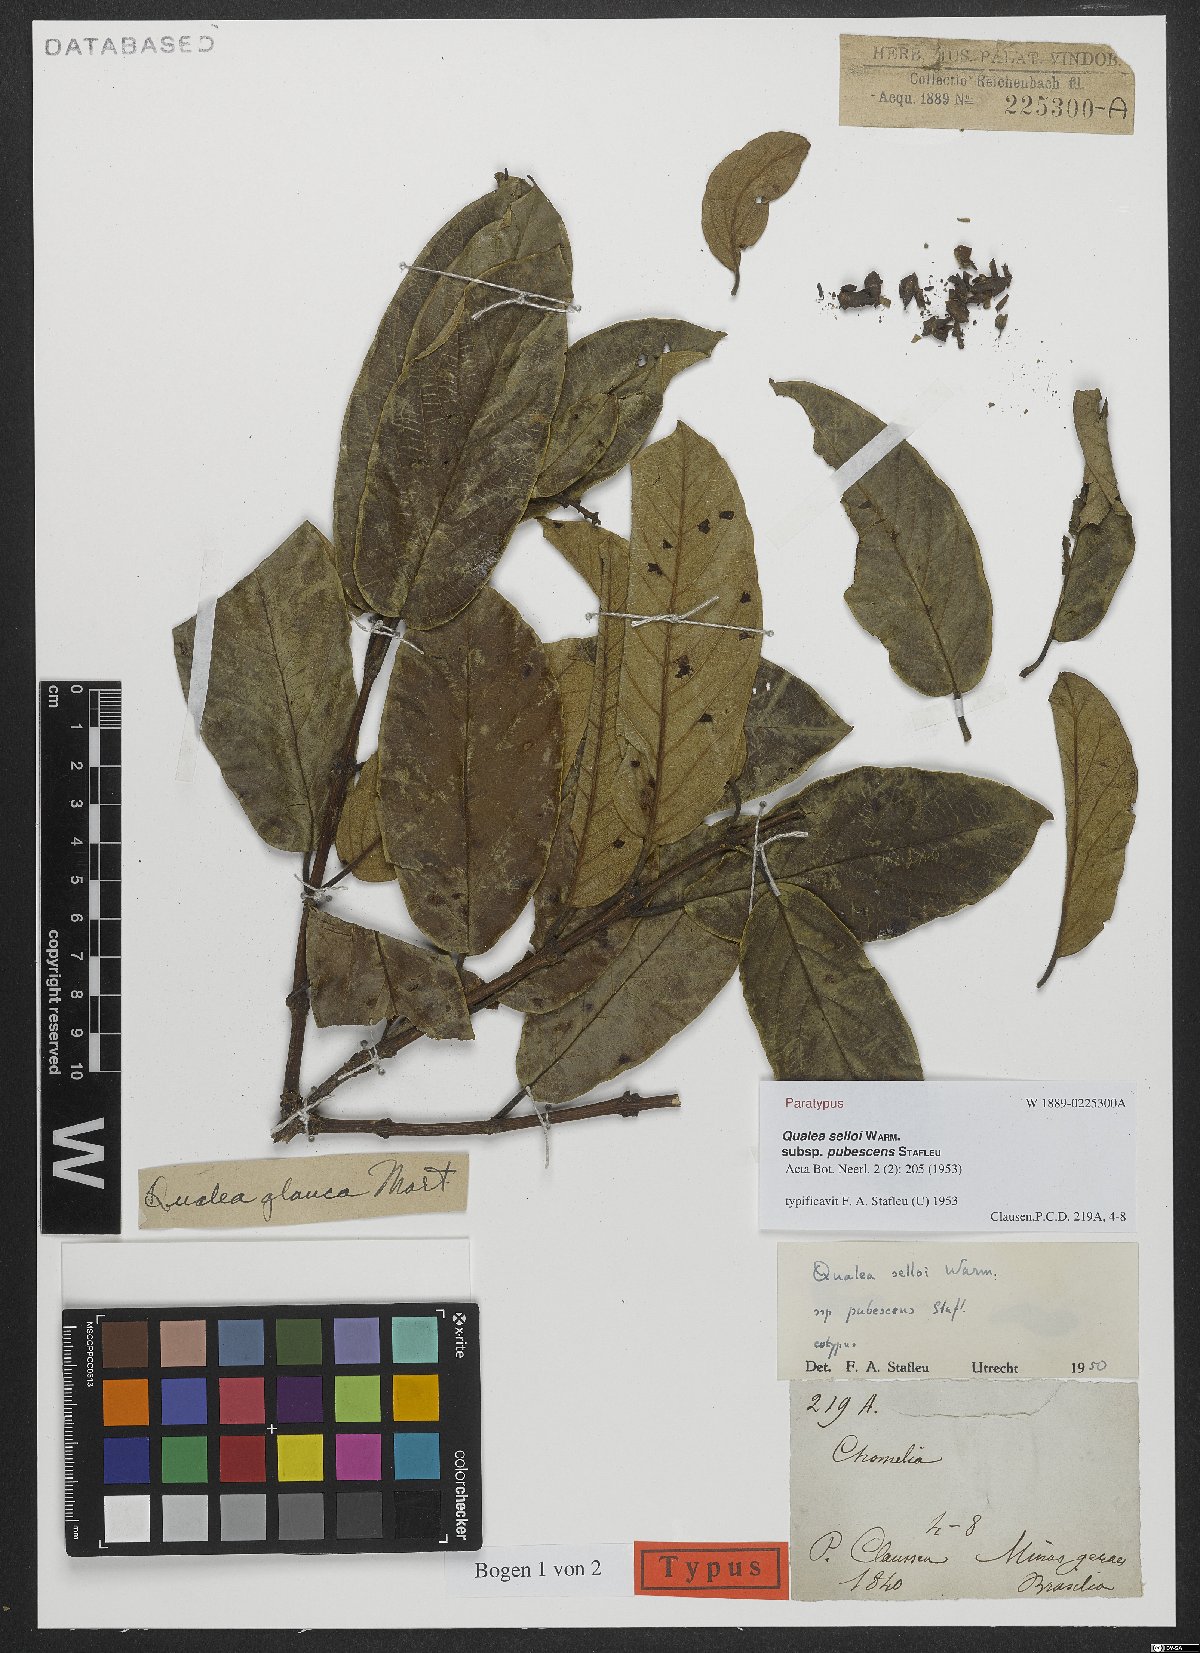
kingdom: Plantae
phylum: Tracheophyta
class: Magnoliopsida
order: Myrtales
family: Vochysiaceae
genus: Qualea
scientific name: Qualea selloi
